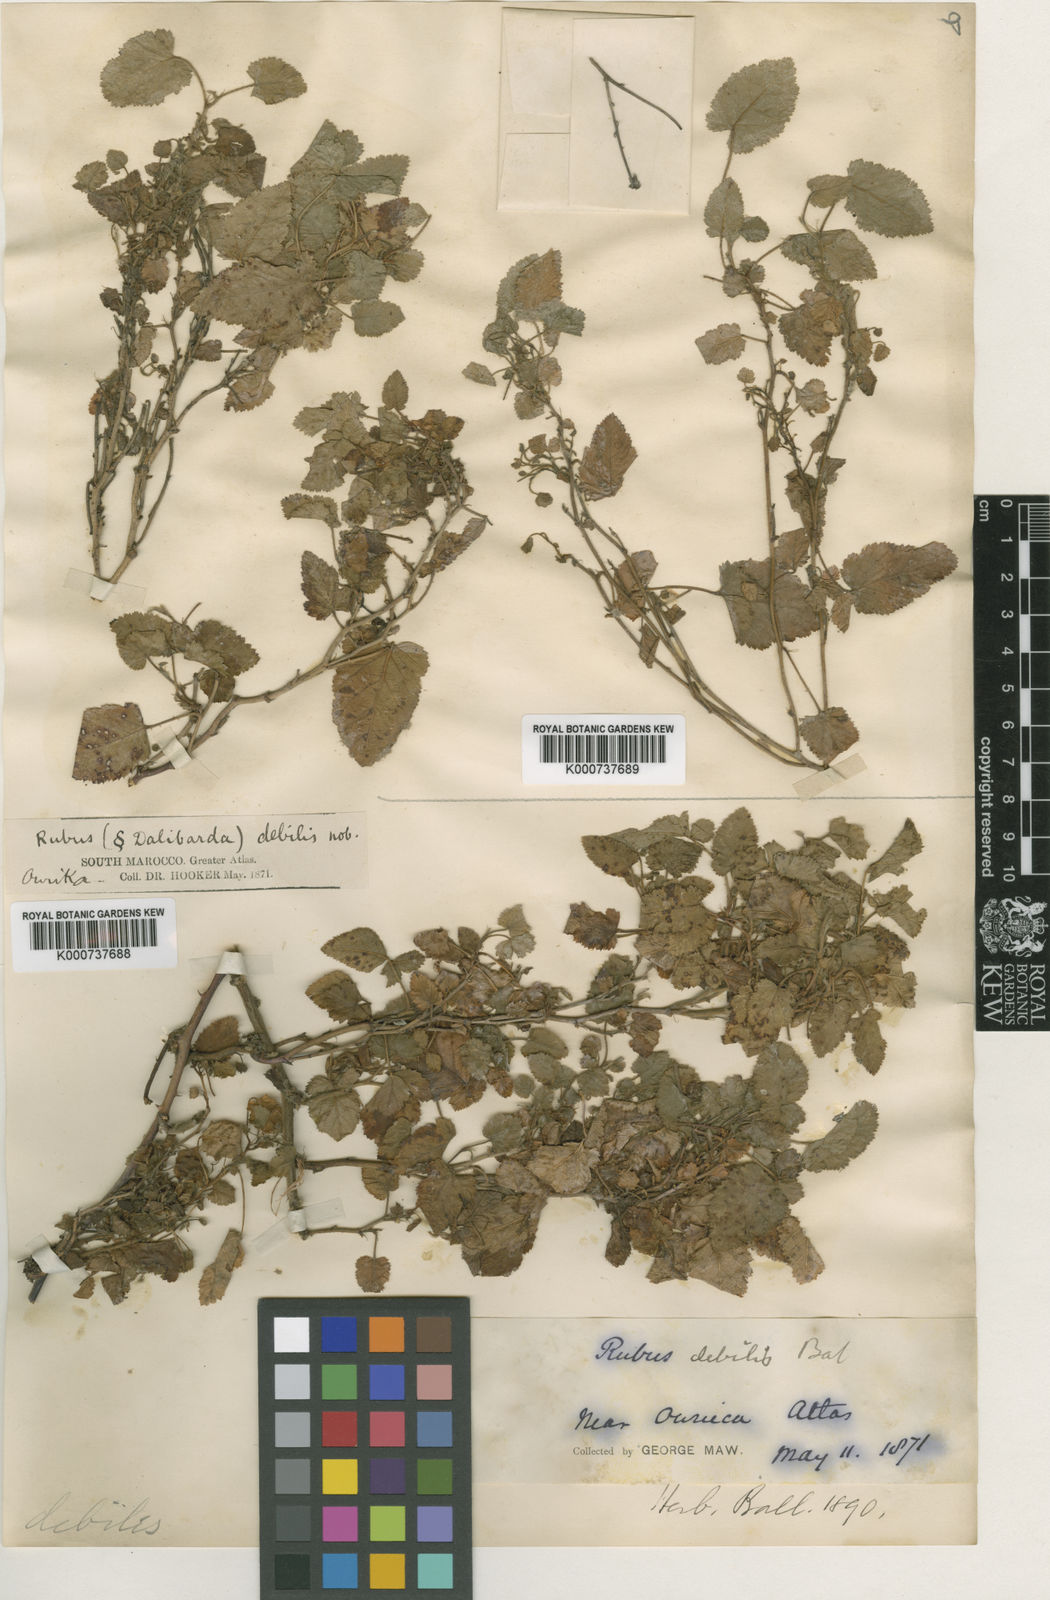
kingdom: Plantae
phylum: Tracheophyta
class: Magnoliopsida
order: Rosales
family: Rosaceae
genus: Rubus
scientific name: Rubus debilis
